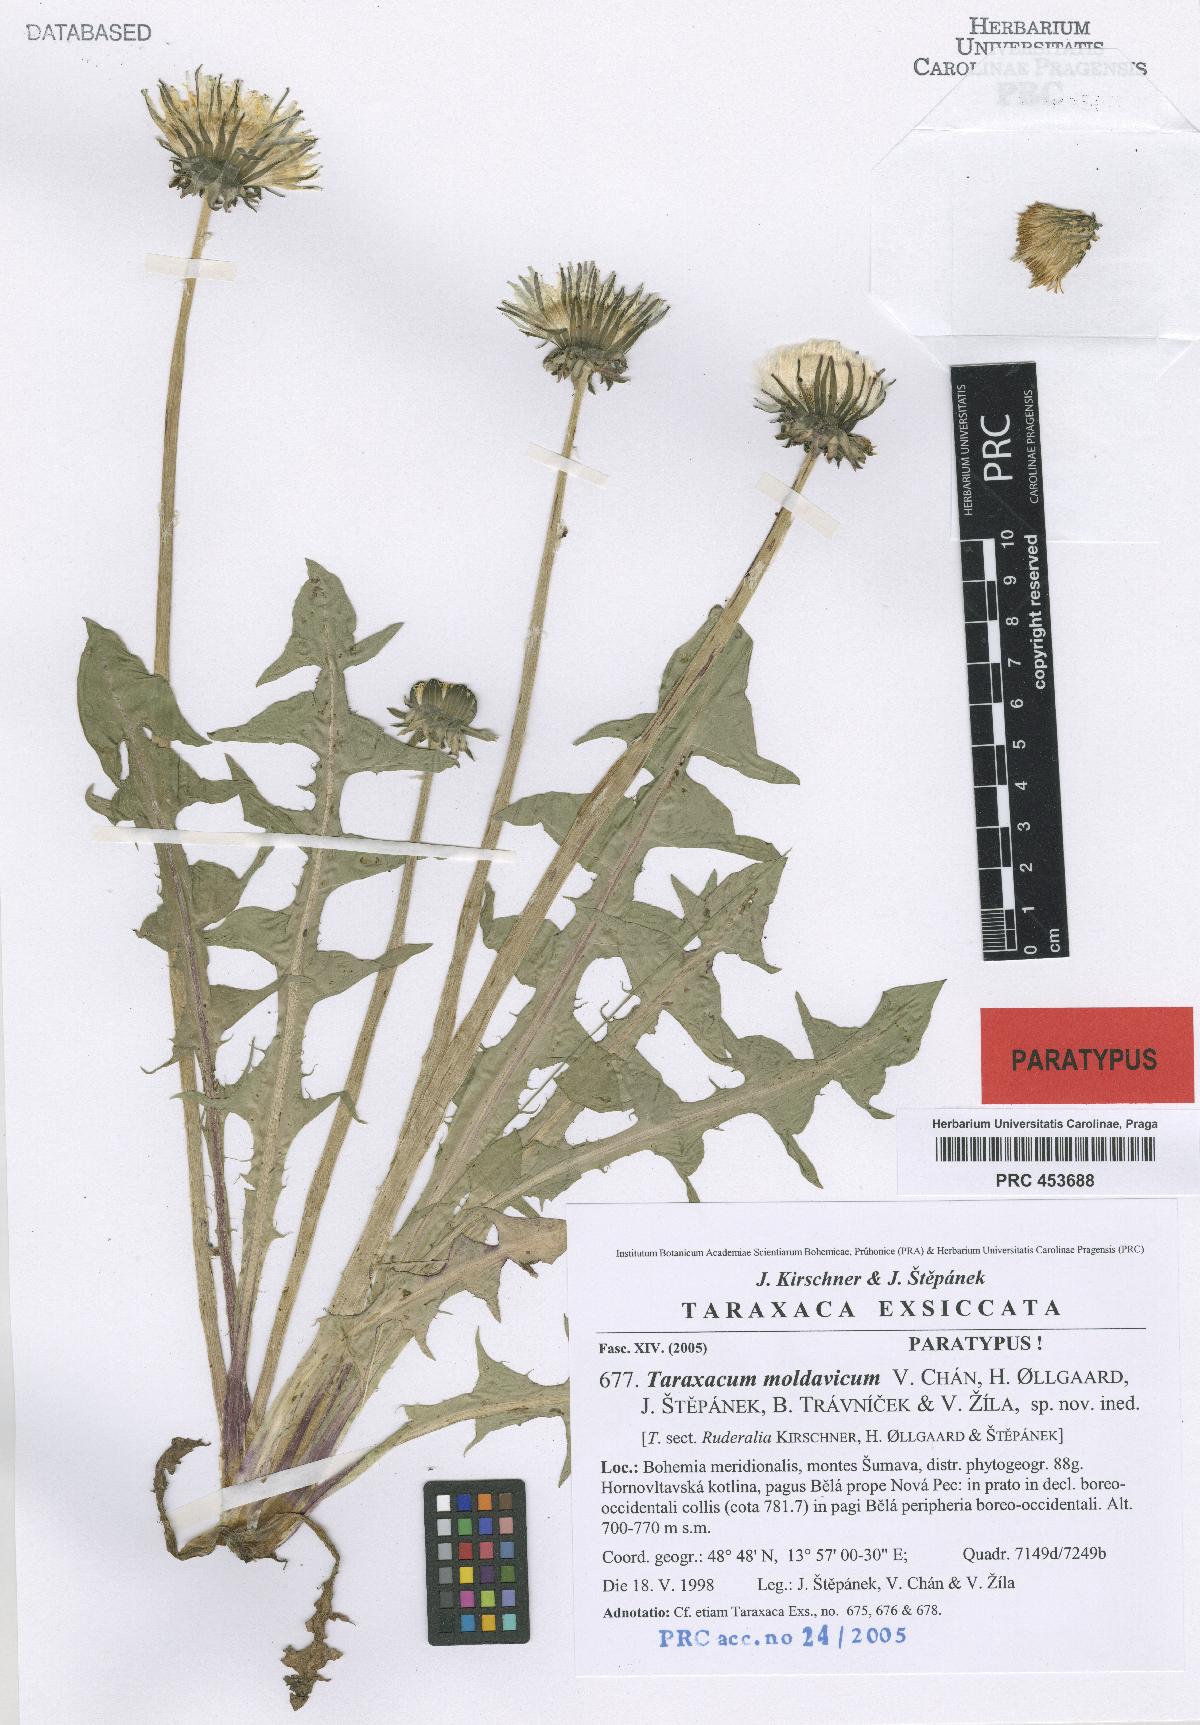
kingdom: Plantae
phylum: Tracheophyta
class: Magnoliopsida
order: Asterales
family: Asteraceae
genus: Taraxacum
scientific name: Taraxacum moldavicum
